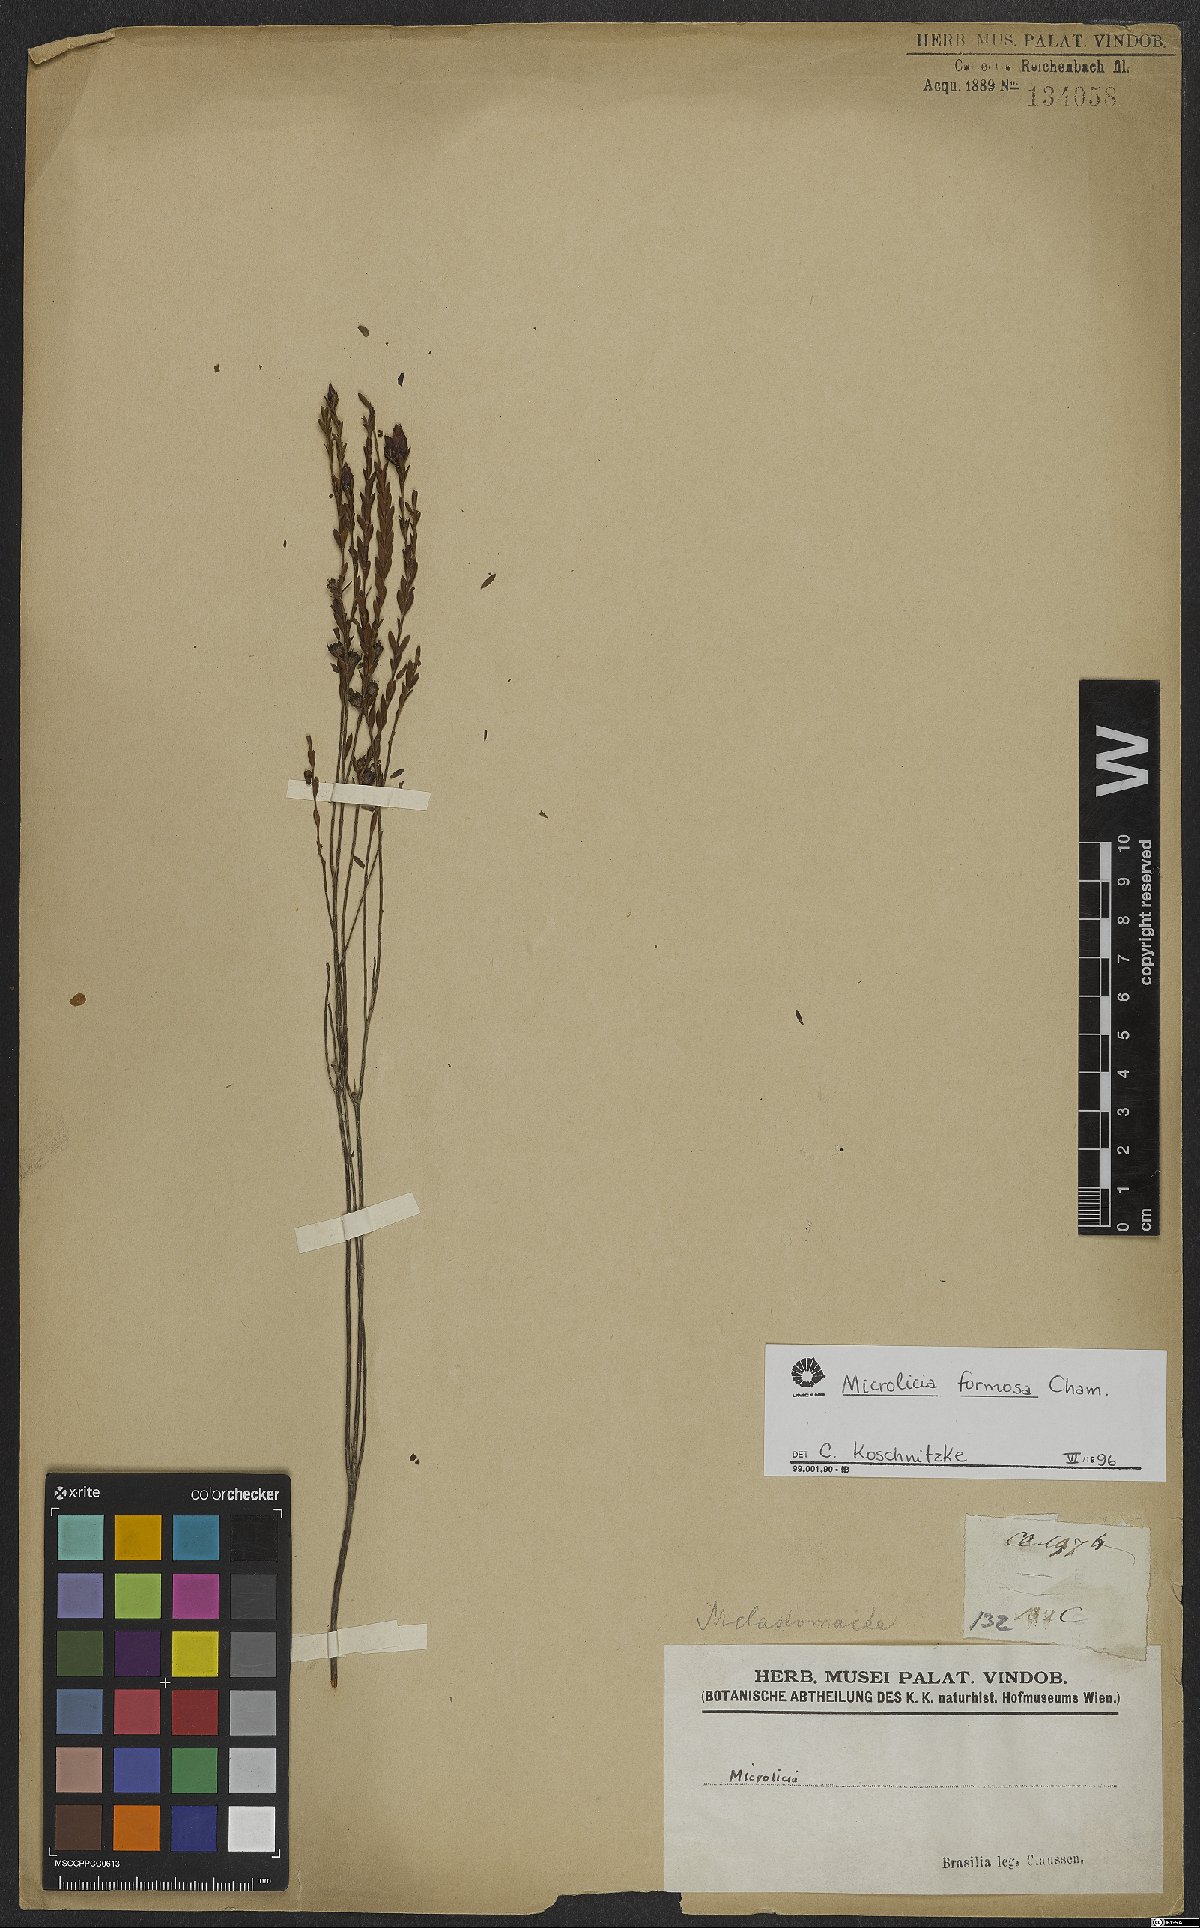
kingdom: Plantae
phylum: Tracheophyta
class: Magnoliopsida
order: Myrtales
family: Melastomataceae
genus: Microlicia
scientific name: Microlicia formosa
